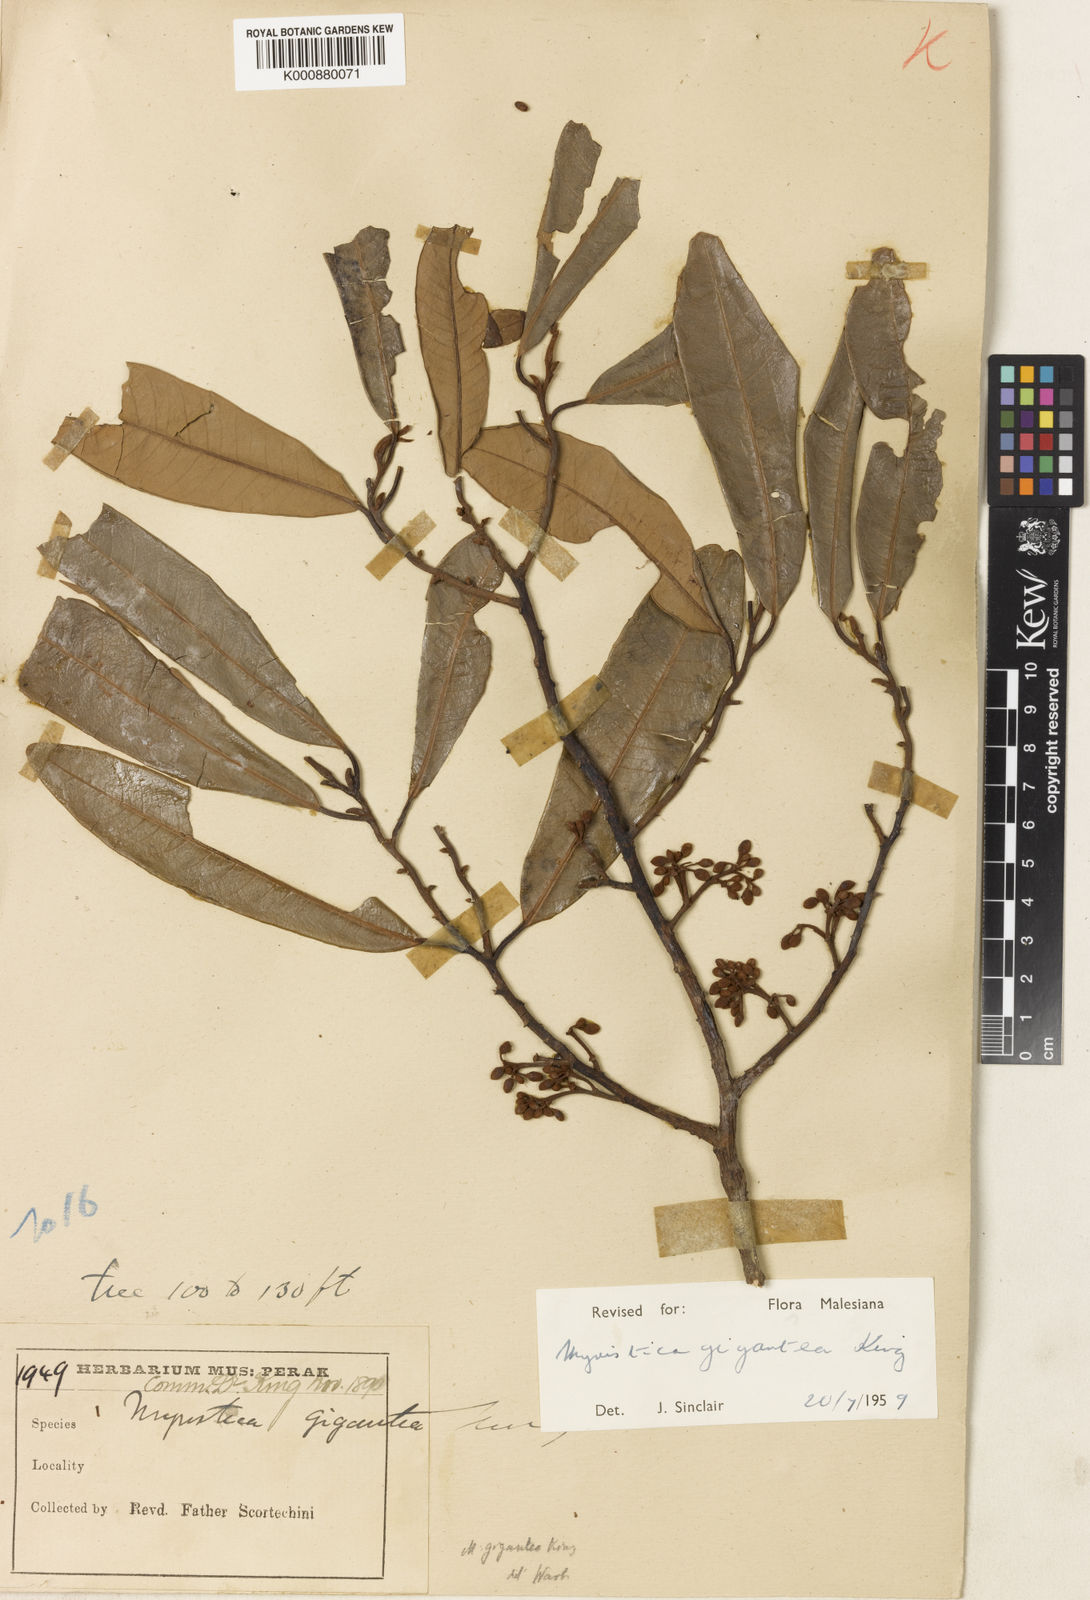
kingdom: Plantae
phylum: Tracheophyta
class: Magnoliopsida
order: Magnoliales
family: Myristicaceae
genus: Myristica
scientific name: Myristica gigantea
